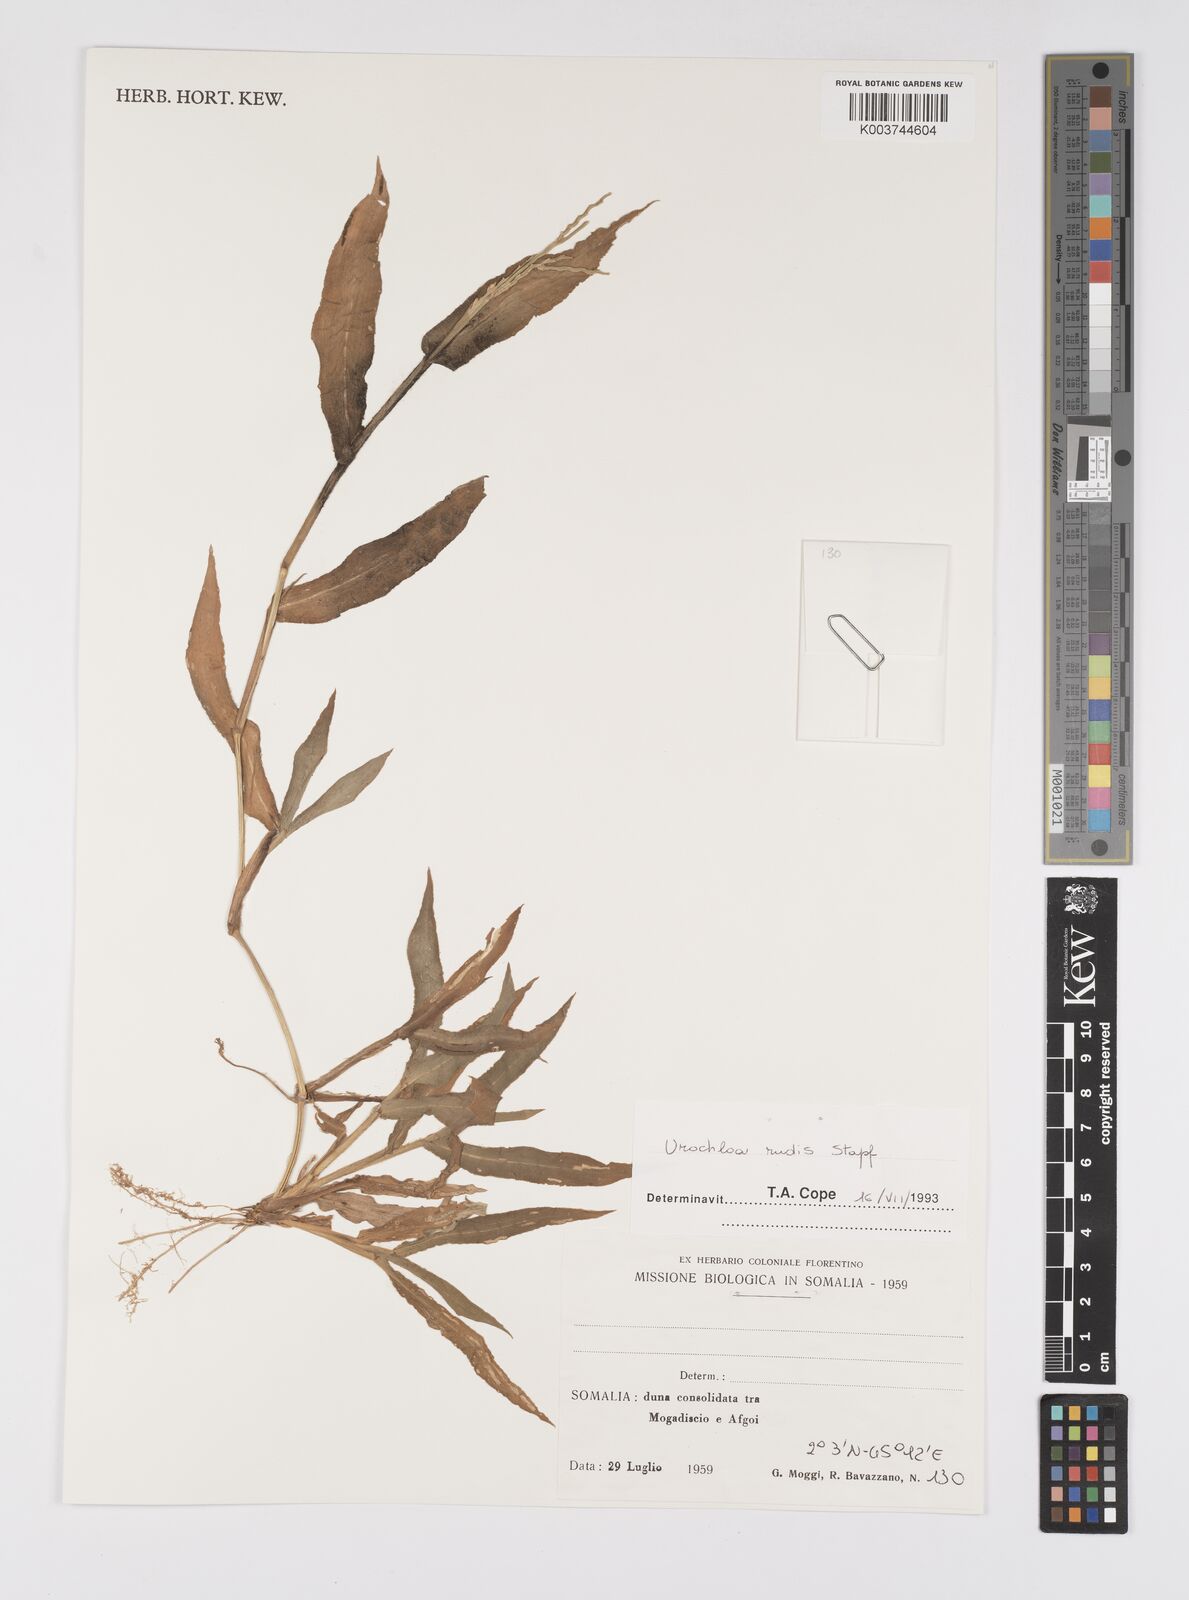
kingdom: Plantae
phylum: Tracheophyta
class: Liliopsida
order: Poales
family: Poaceae
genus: Urochloa
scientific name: Urochloa rudis
